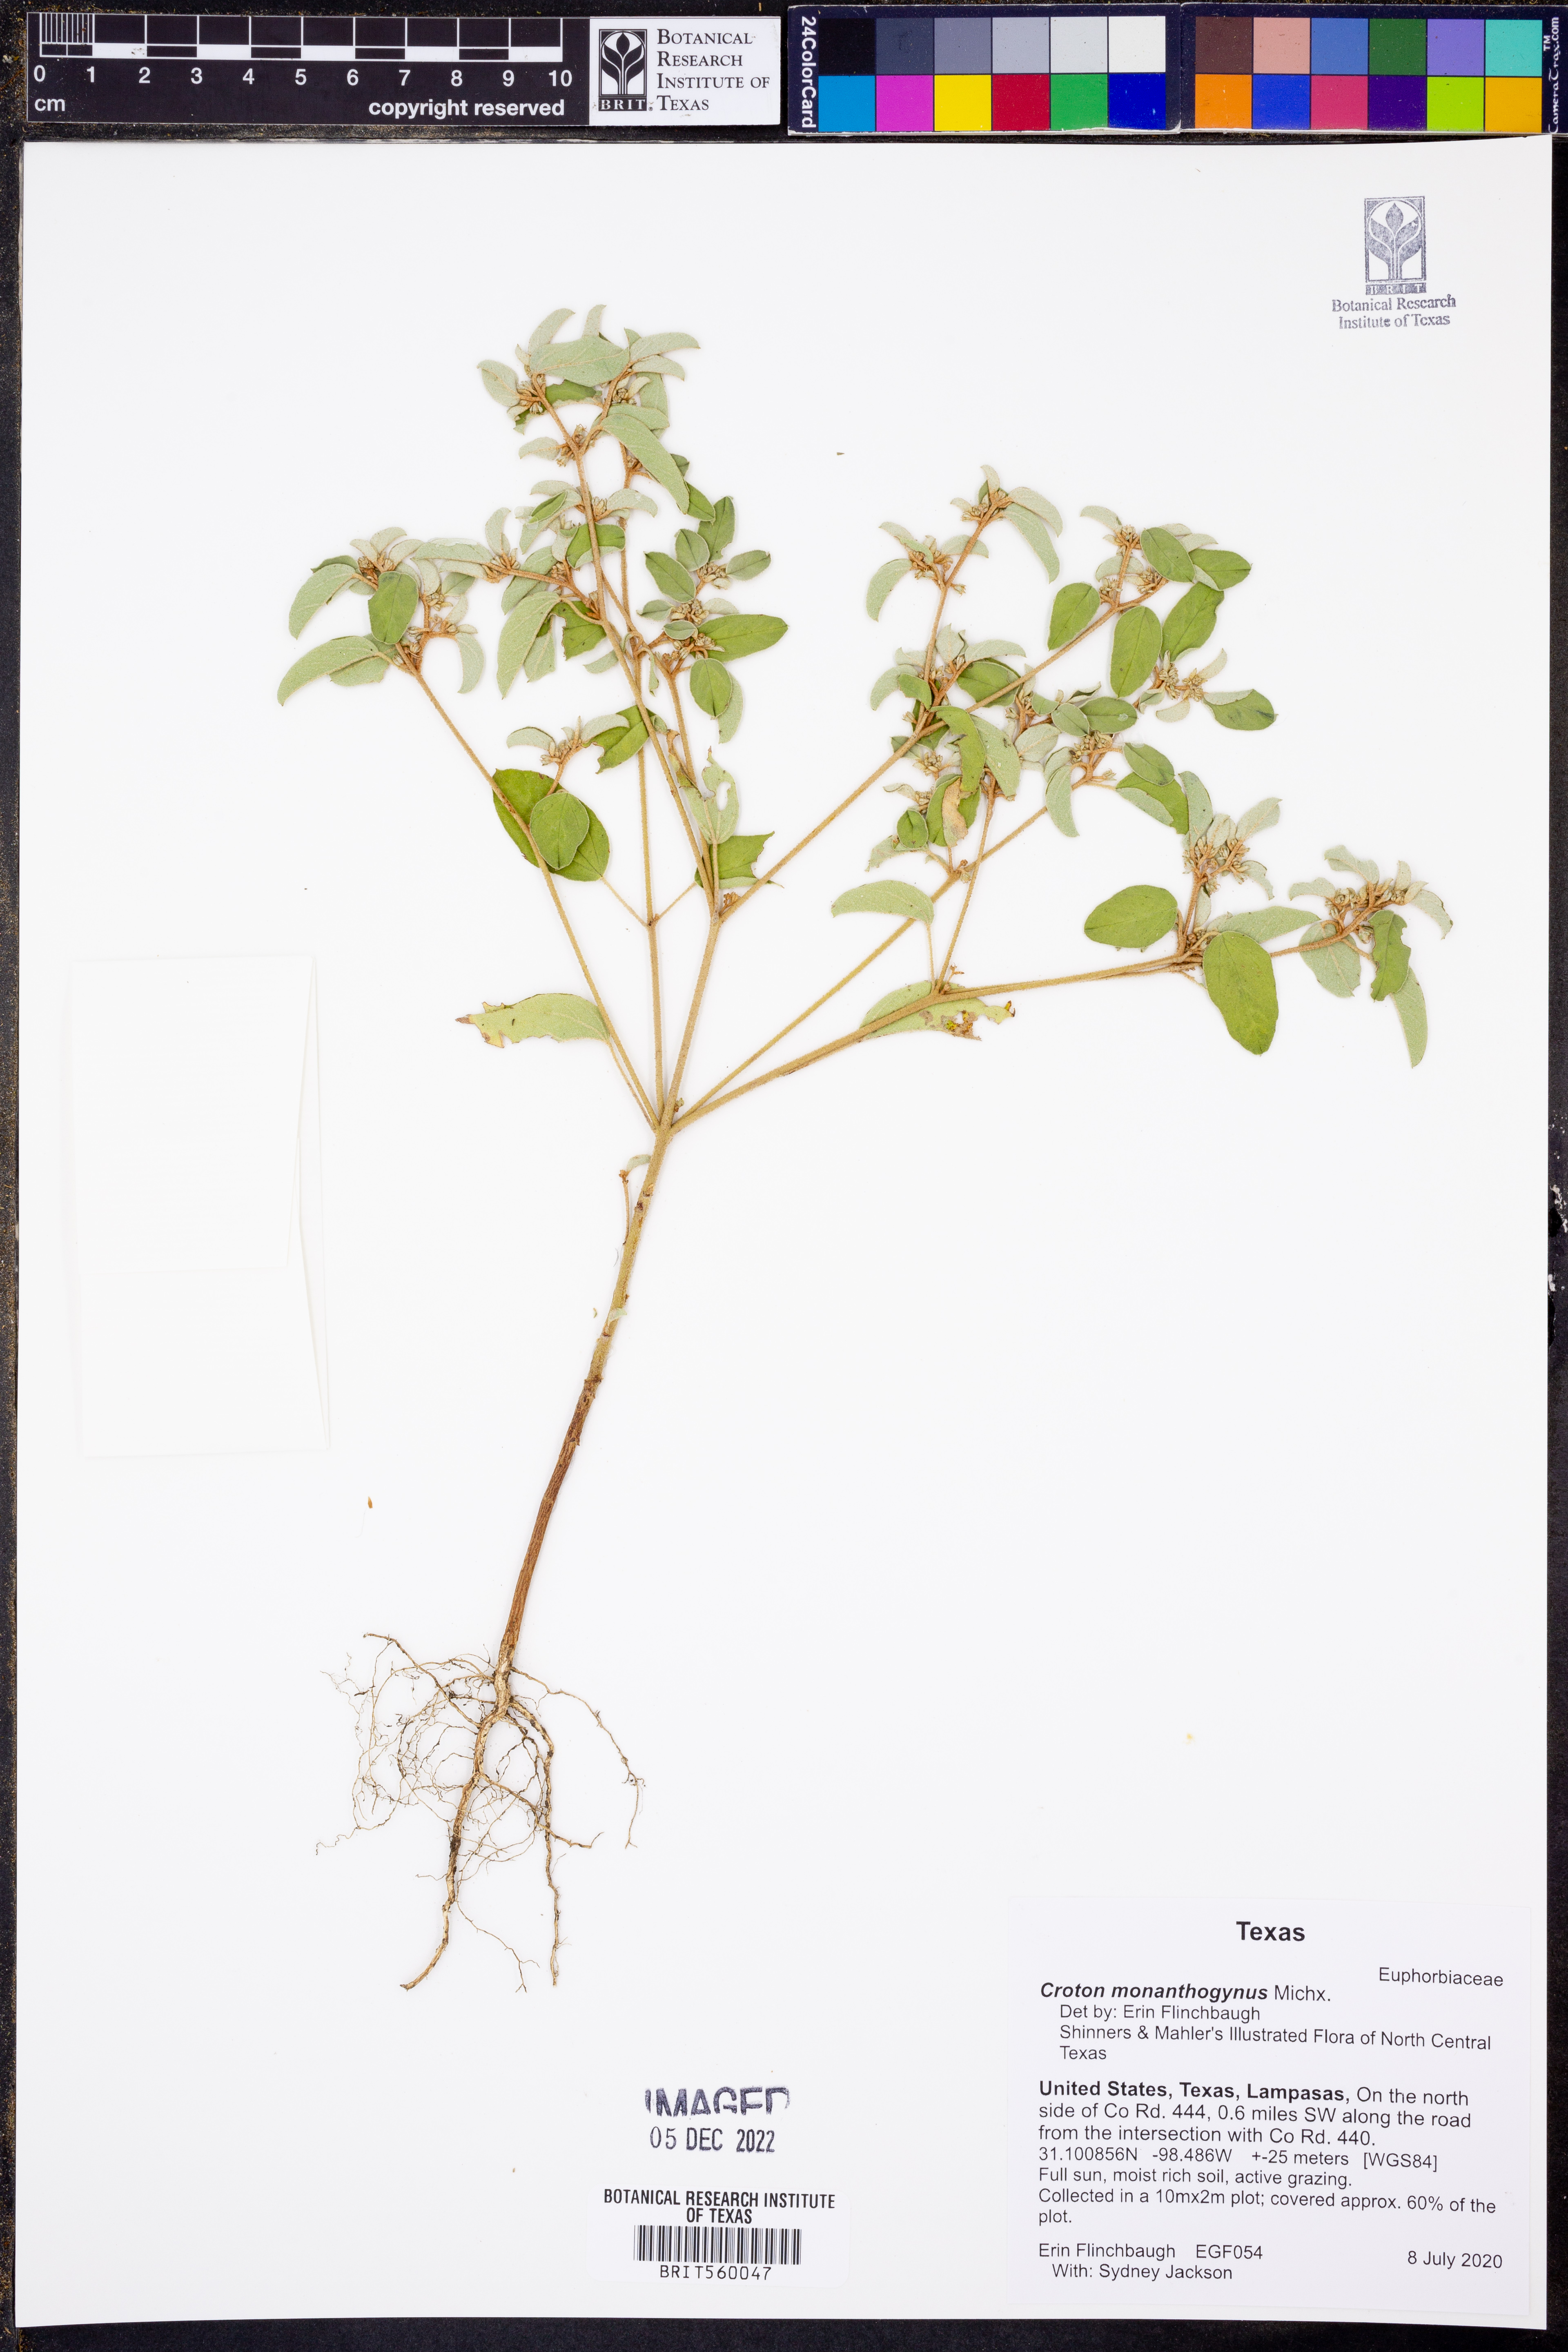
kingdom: Plantae
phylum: Tracheophyta
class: Magnoliopsida
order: Malpighiales
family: Euphorbiaceae
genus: Croton
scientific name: Croton monanthogynus
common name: One-seed croton
